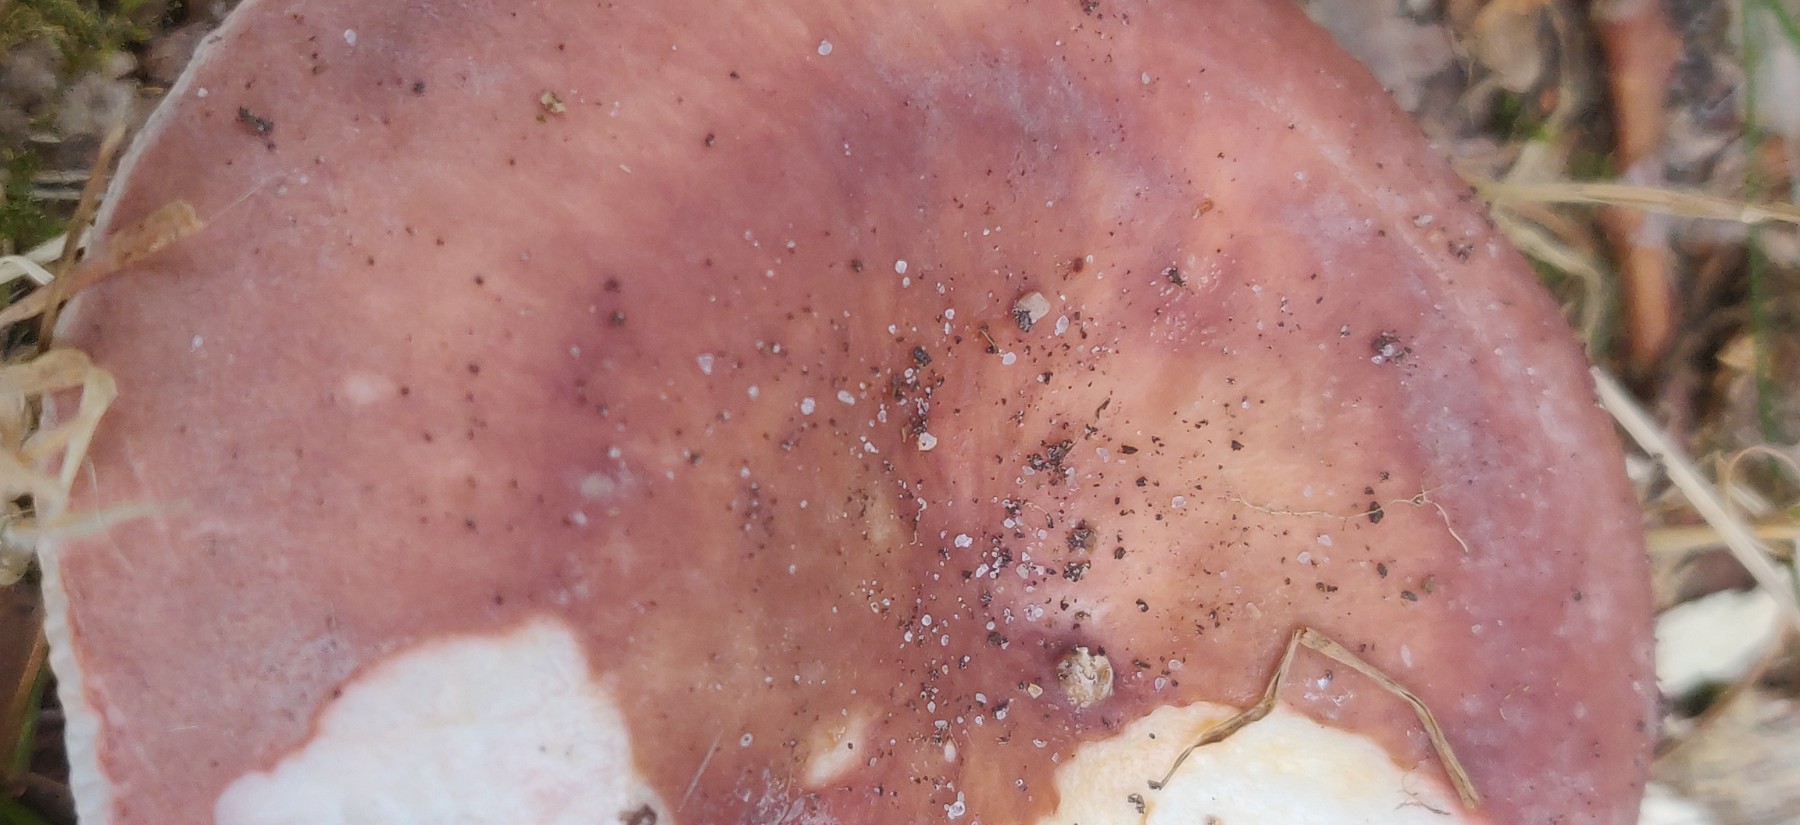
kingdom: Fungi
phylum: Basidiomycota
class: Agaricomycetes
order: Russulales
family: Russulaceae
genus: Russula
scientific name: Russula vesca
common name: spiselig skørhat
